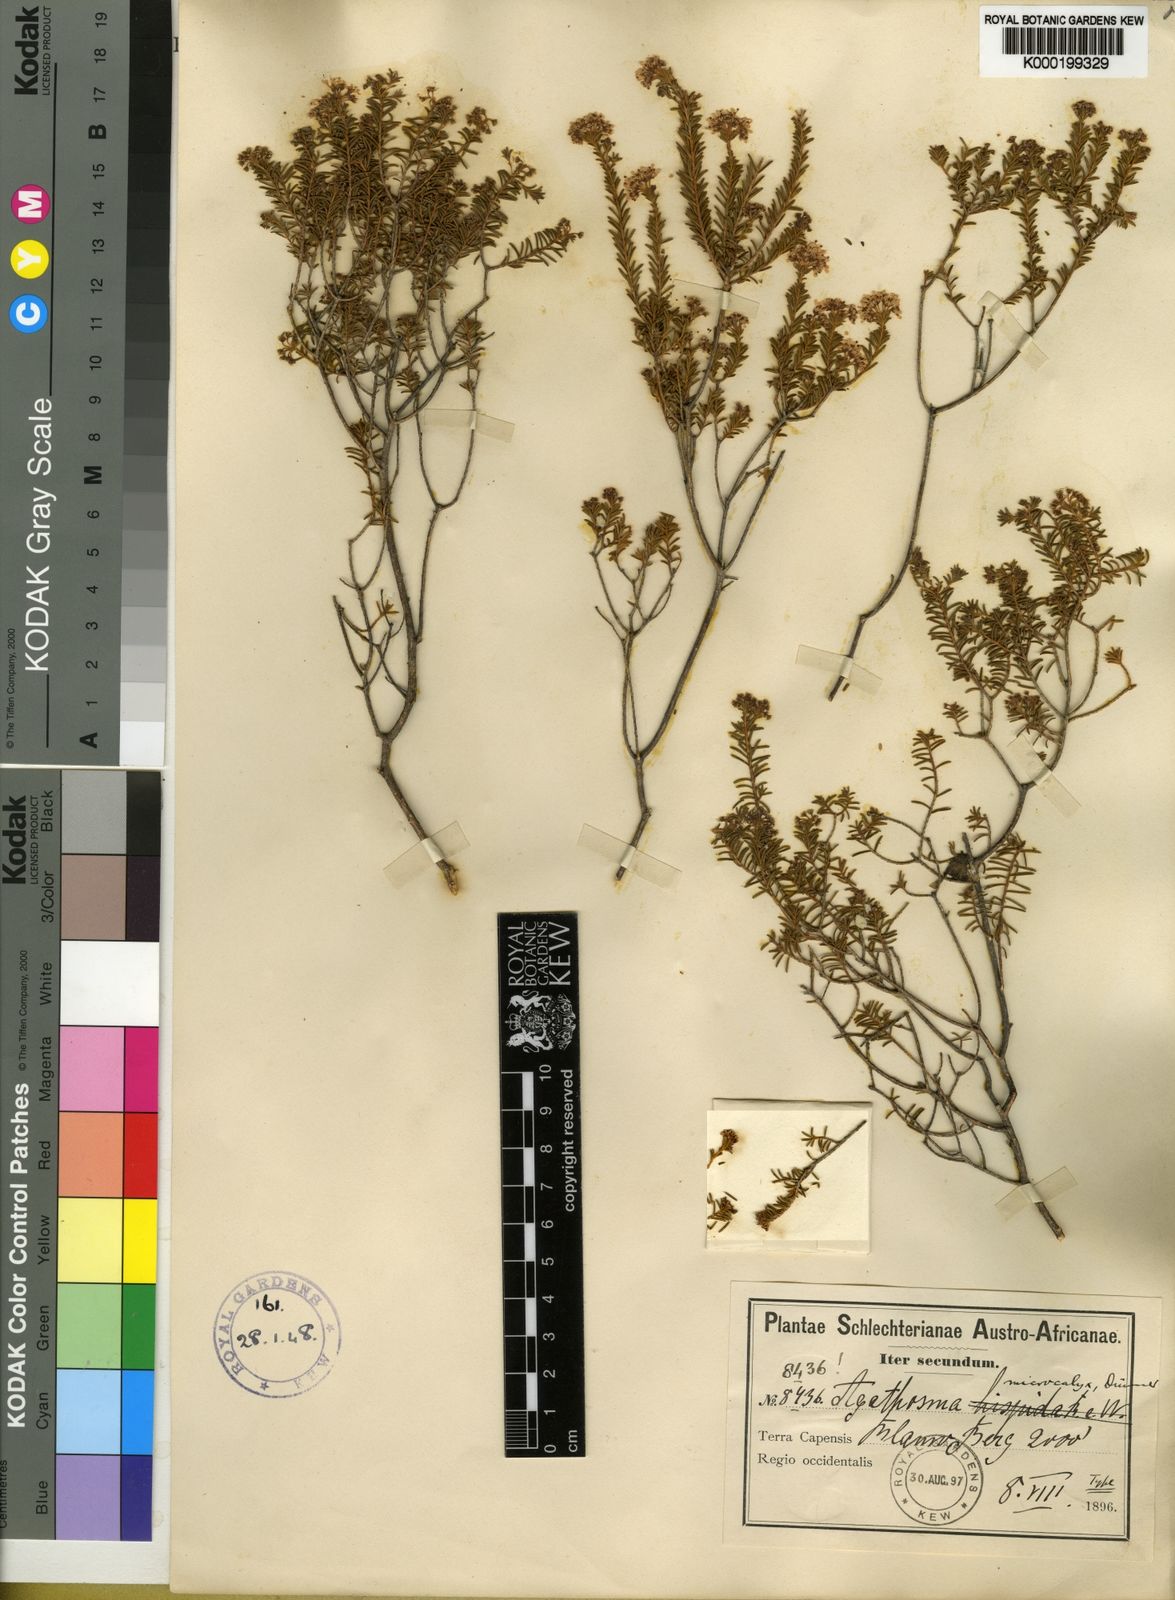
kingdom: Plantae
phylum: Tracheophyta
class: Magnoliopsida
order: Sapindales
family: Rutaceae
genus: Agathosma
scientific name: Agathosma microcalyx
